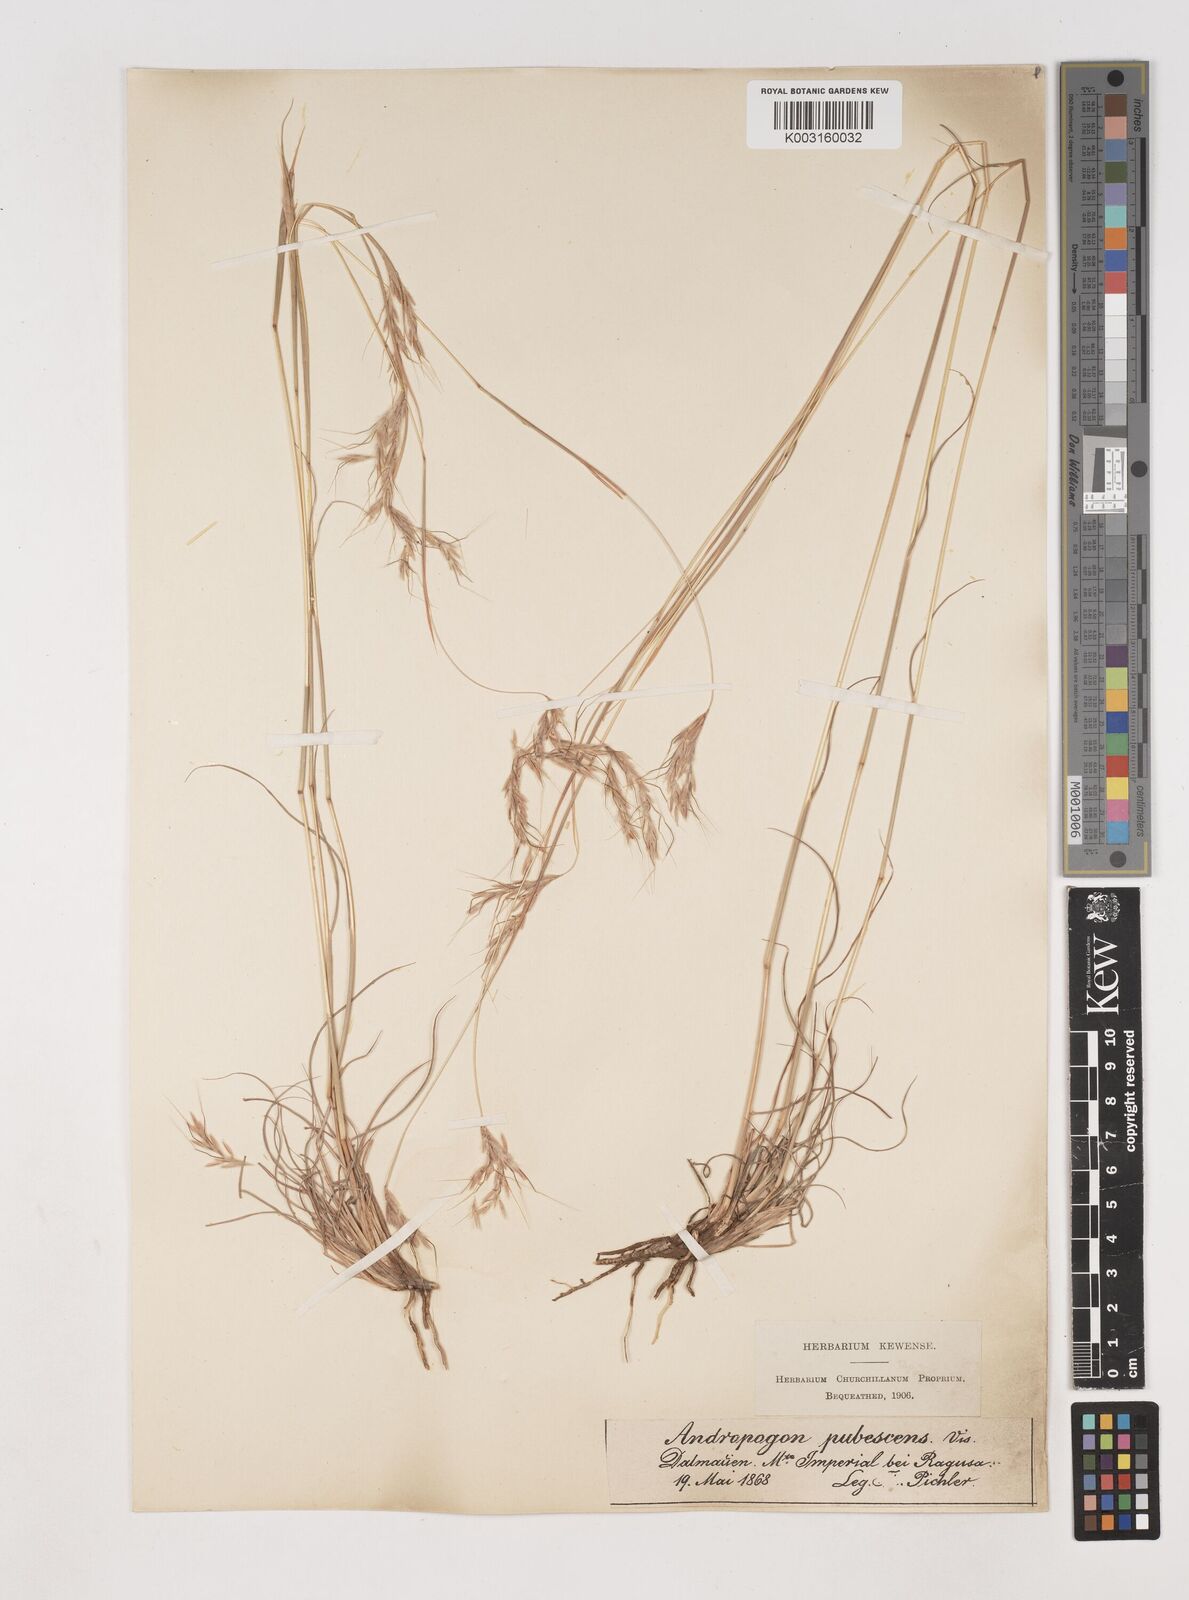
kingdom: Plantae
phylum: Tracheophyta
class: Liliopsida
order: Poales
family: Poaceae
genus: Hyparrhenia
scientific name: Hyparrhenia hirta
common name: Thatching grass
